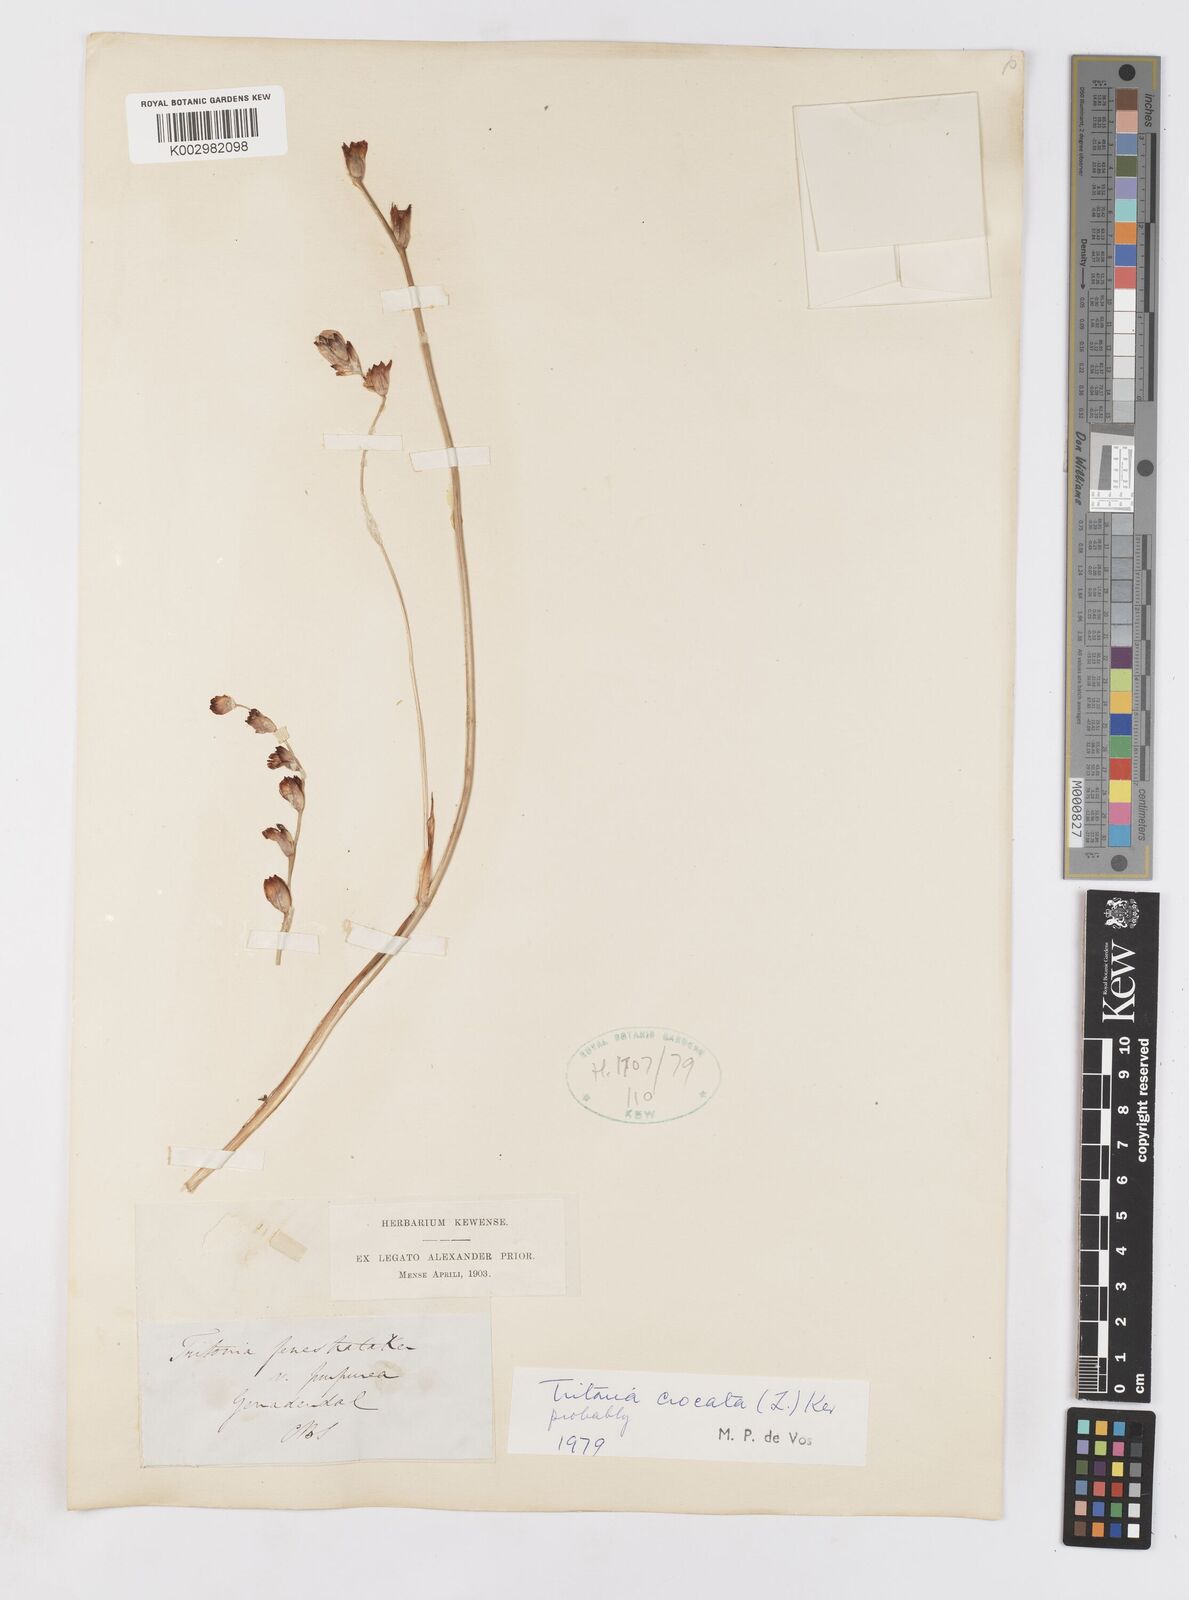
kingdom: Plantae
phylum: Tracheophyta
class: Liliopsida
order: Asparagales
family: Iridaceae
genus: Tritonia
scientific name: Tritonia crocata
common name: Flame-freesia
